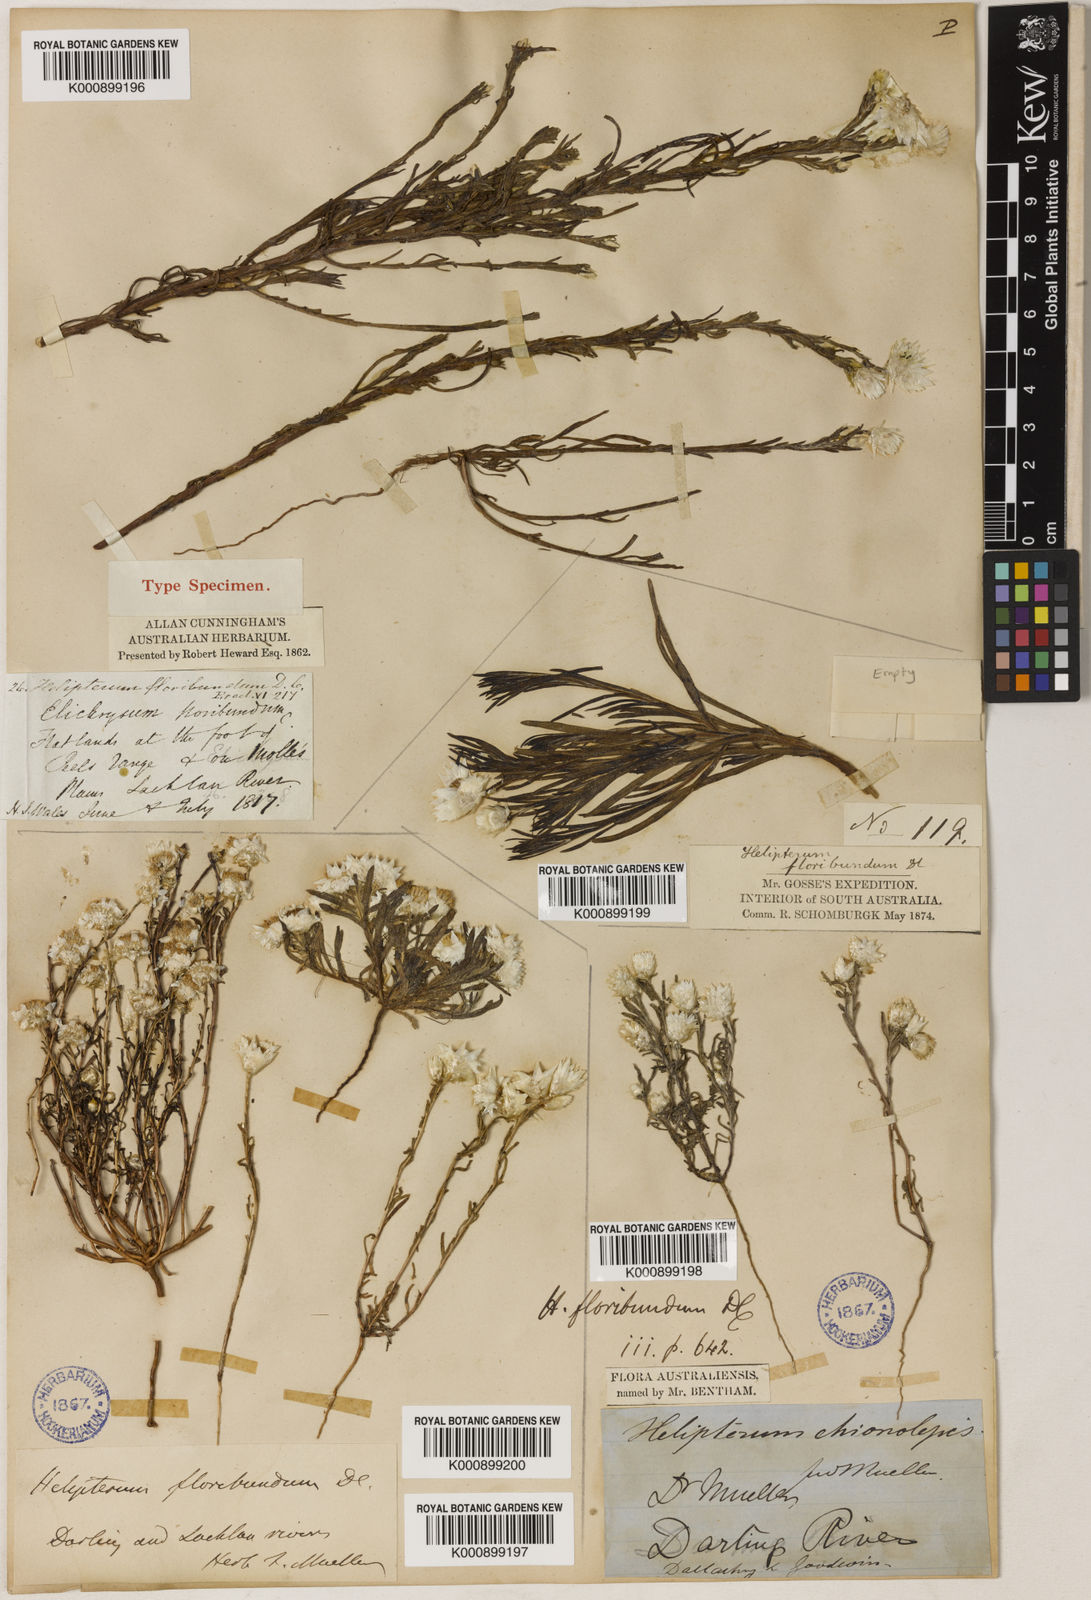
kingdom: Plantae
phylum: Tracheophyta
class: Magnoliopsida
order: Asterales
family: Asteraceae
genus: Rhodanthe
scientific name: Rhodanthe floribunda
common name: Flowery sunray
